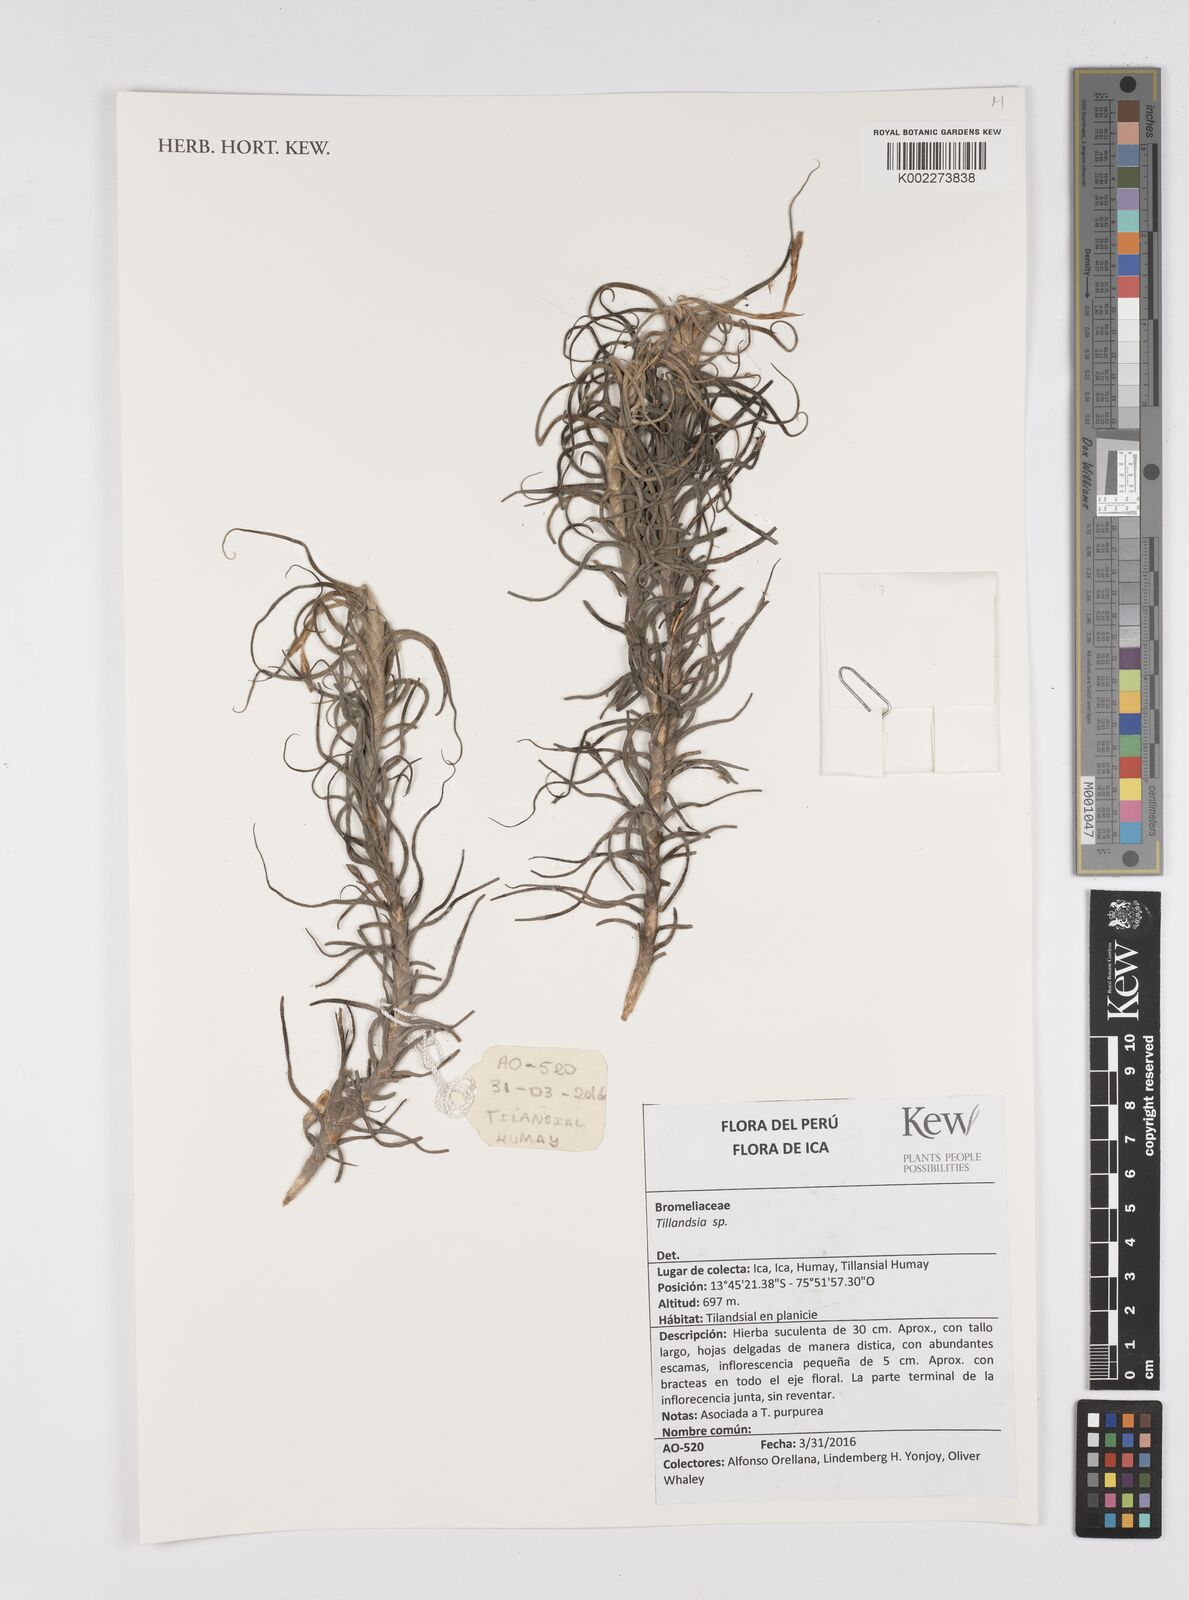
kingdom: Plantae
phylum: Tracheophyta
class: Liliopsida
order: Poales
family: Bromeliaceae
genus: Tillandsia
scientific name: Tillandsia
